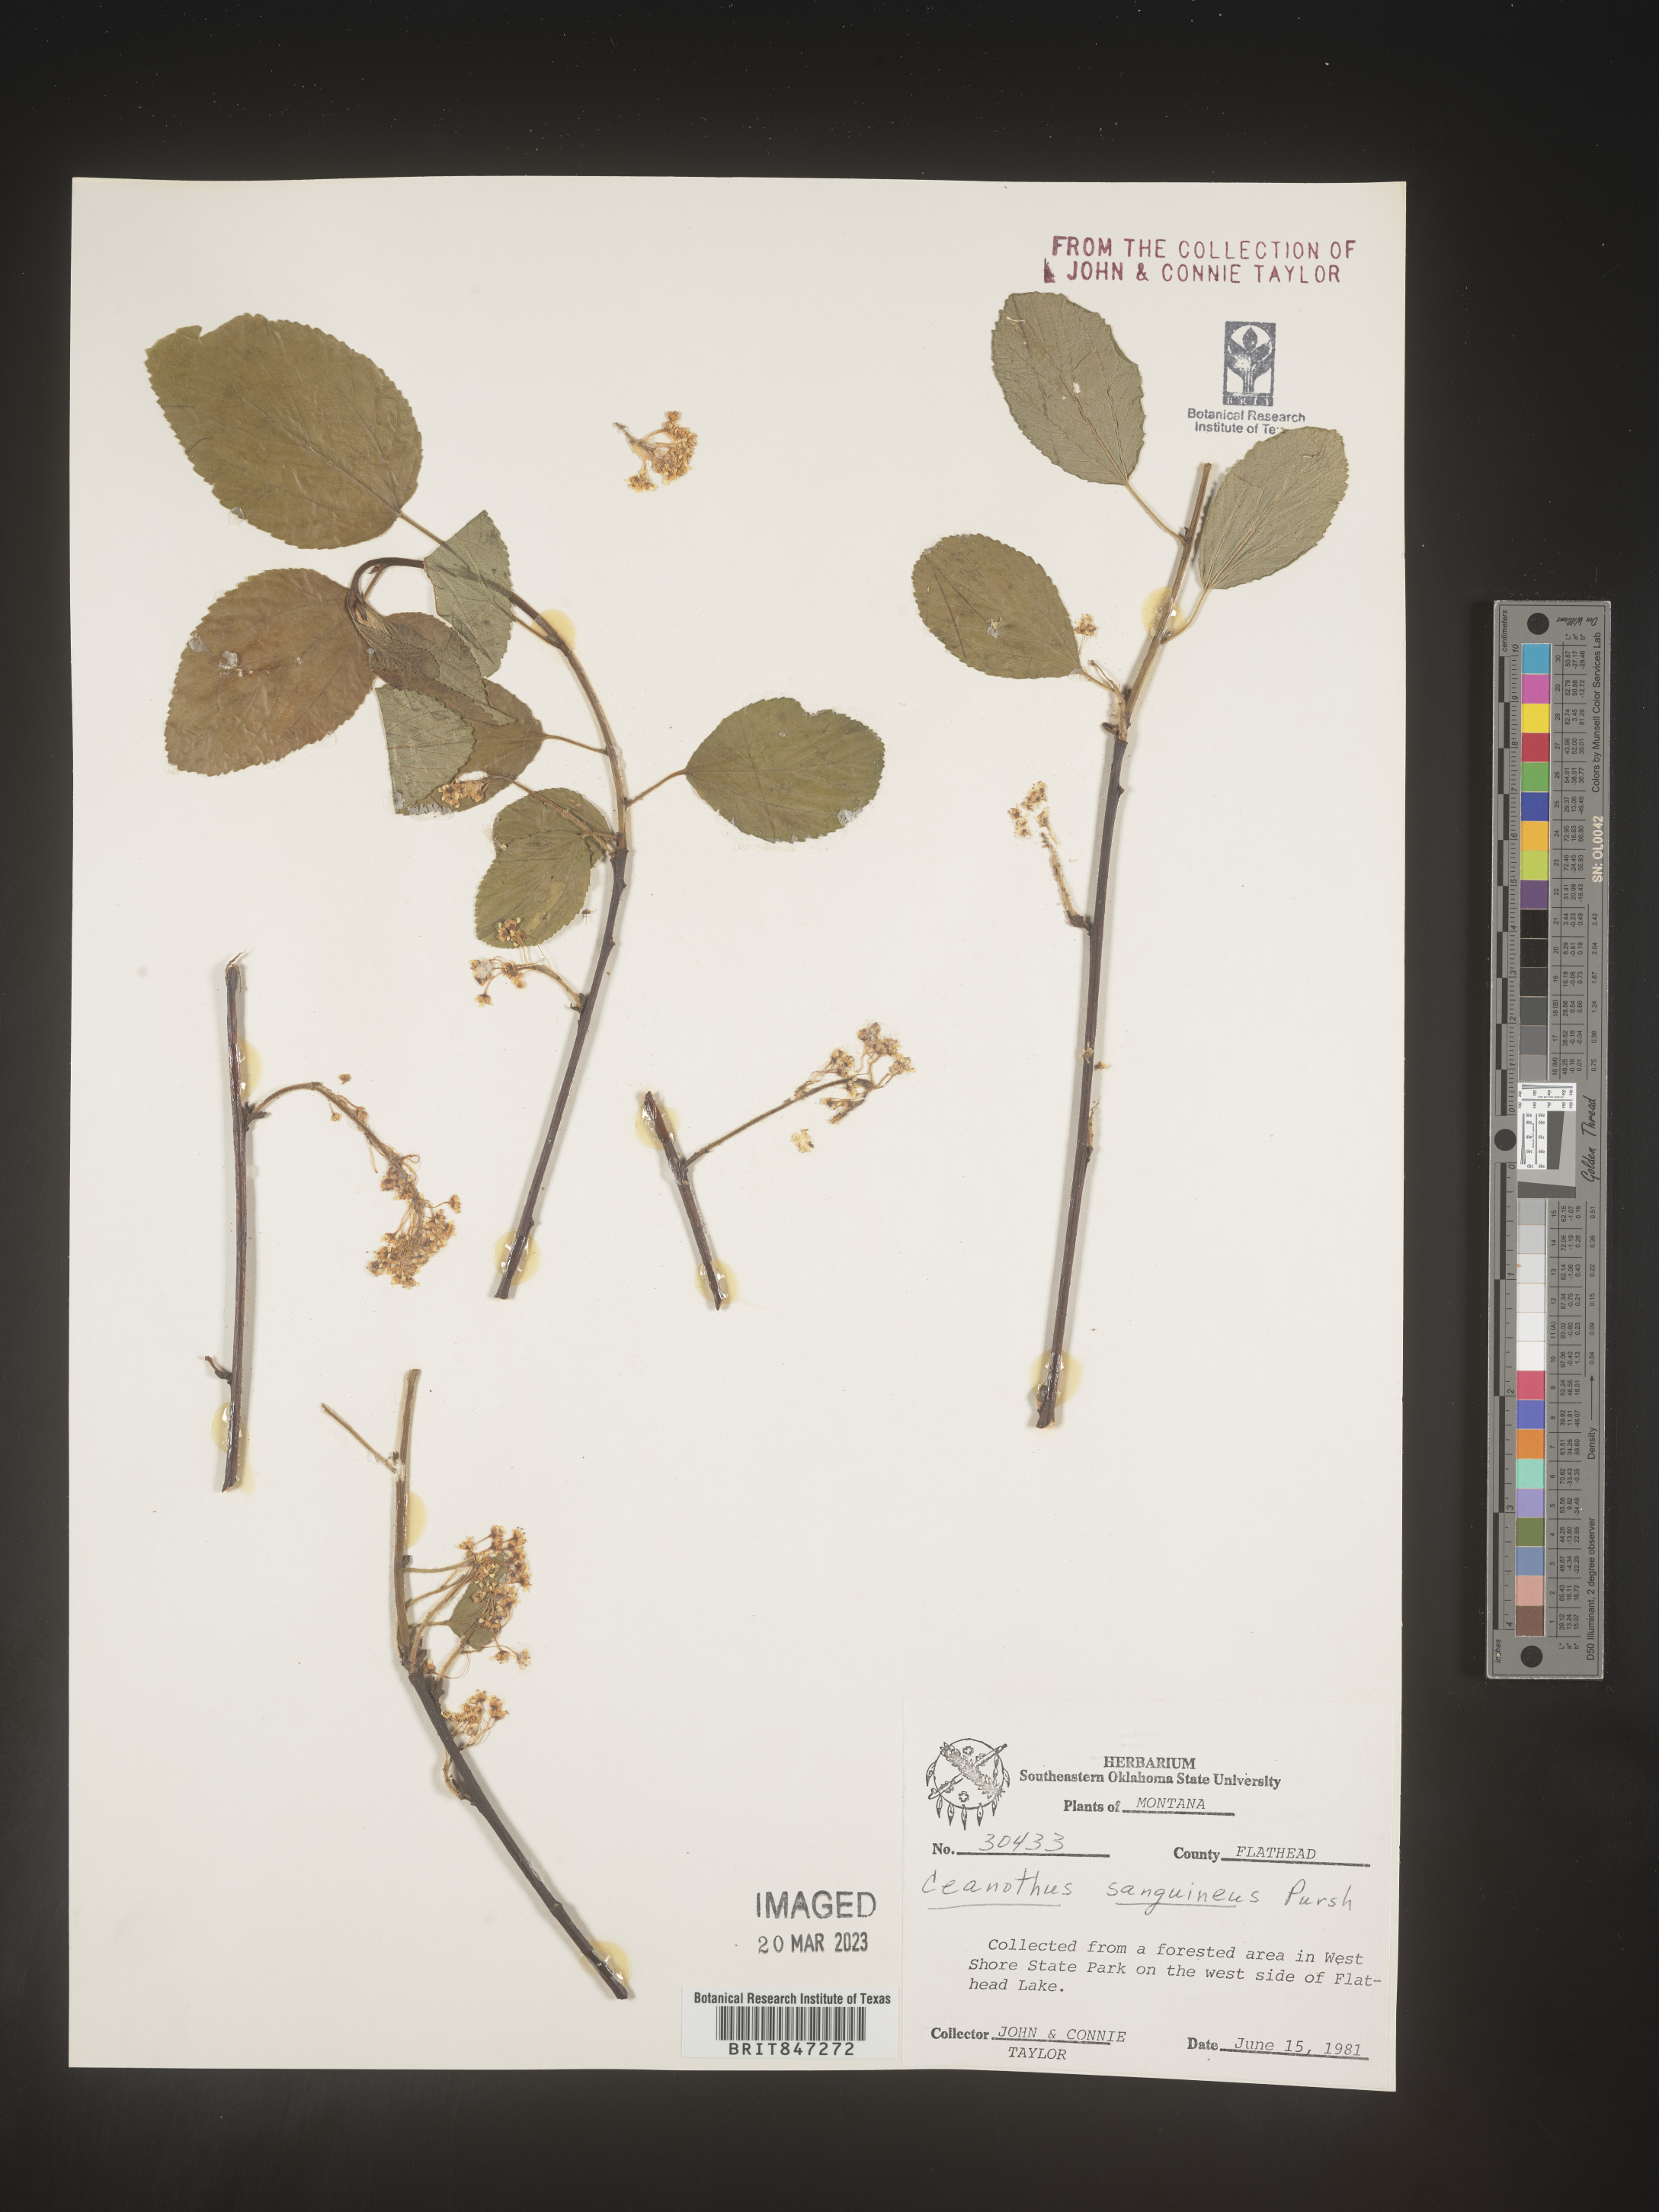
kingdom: Plantae
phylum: Tracheophyta
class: Magnoliopsida
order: Rosales
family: Rhamnaceae
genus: Ceanothus
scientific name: Ceanothus
